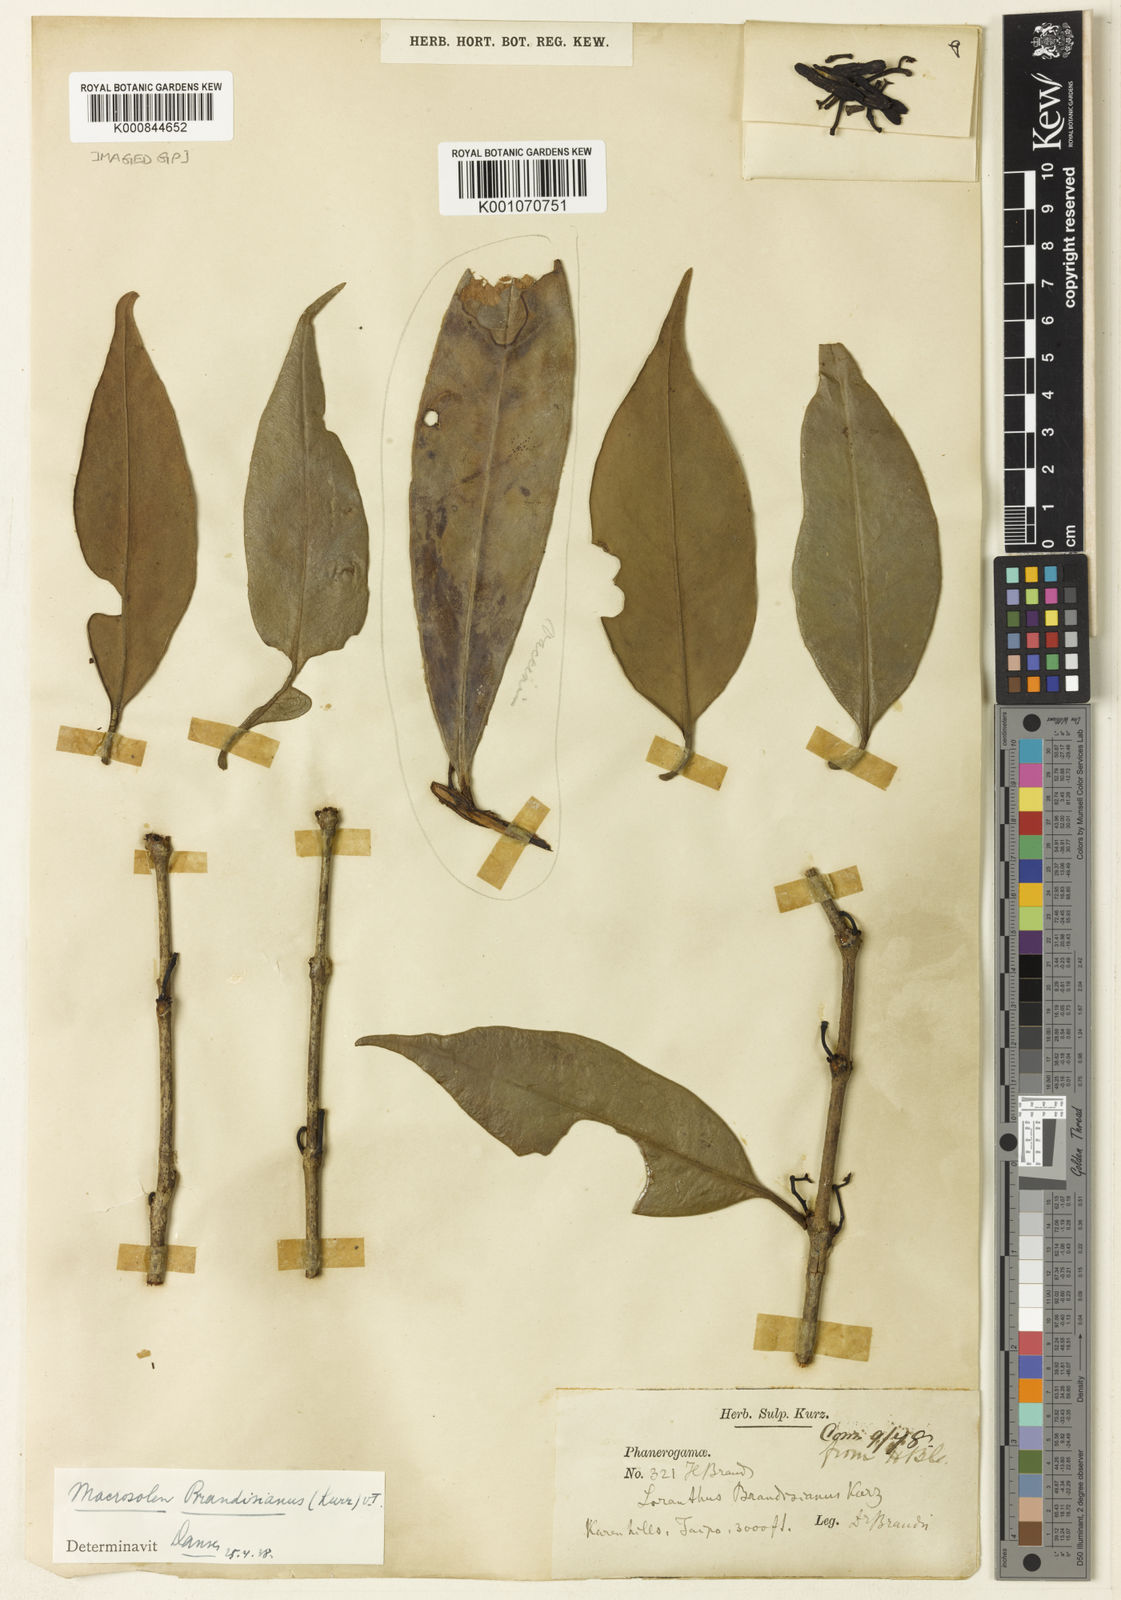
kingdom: Plantae
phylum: Tracheophyta
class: Magnoliopsida
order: Santalales
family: Loranthaceae
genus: Macrosolen
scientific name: Macrosolen brandisianus
